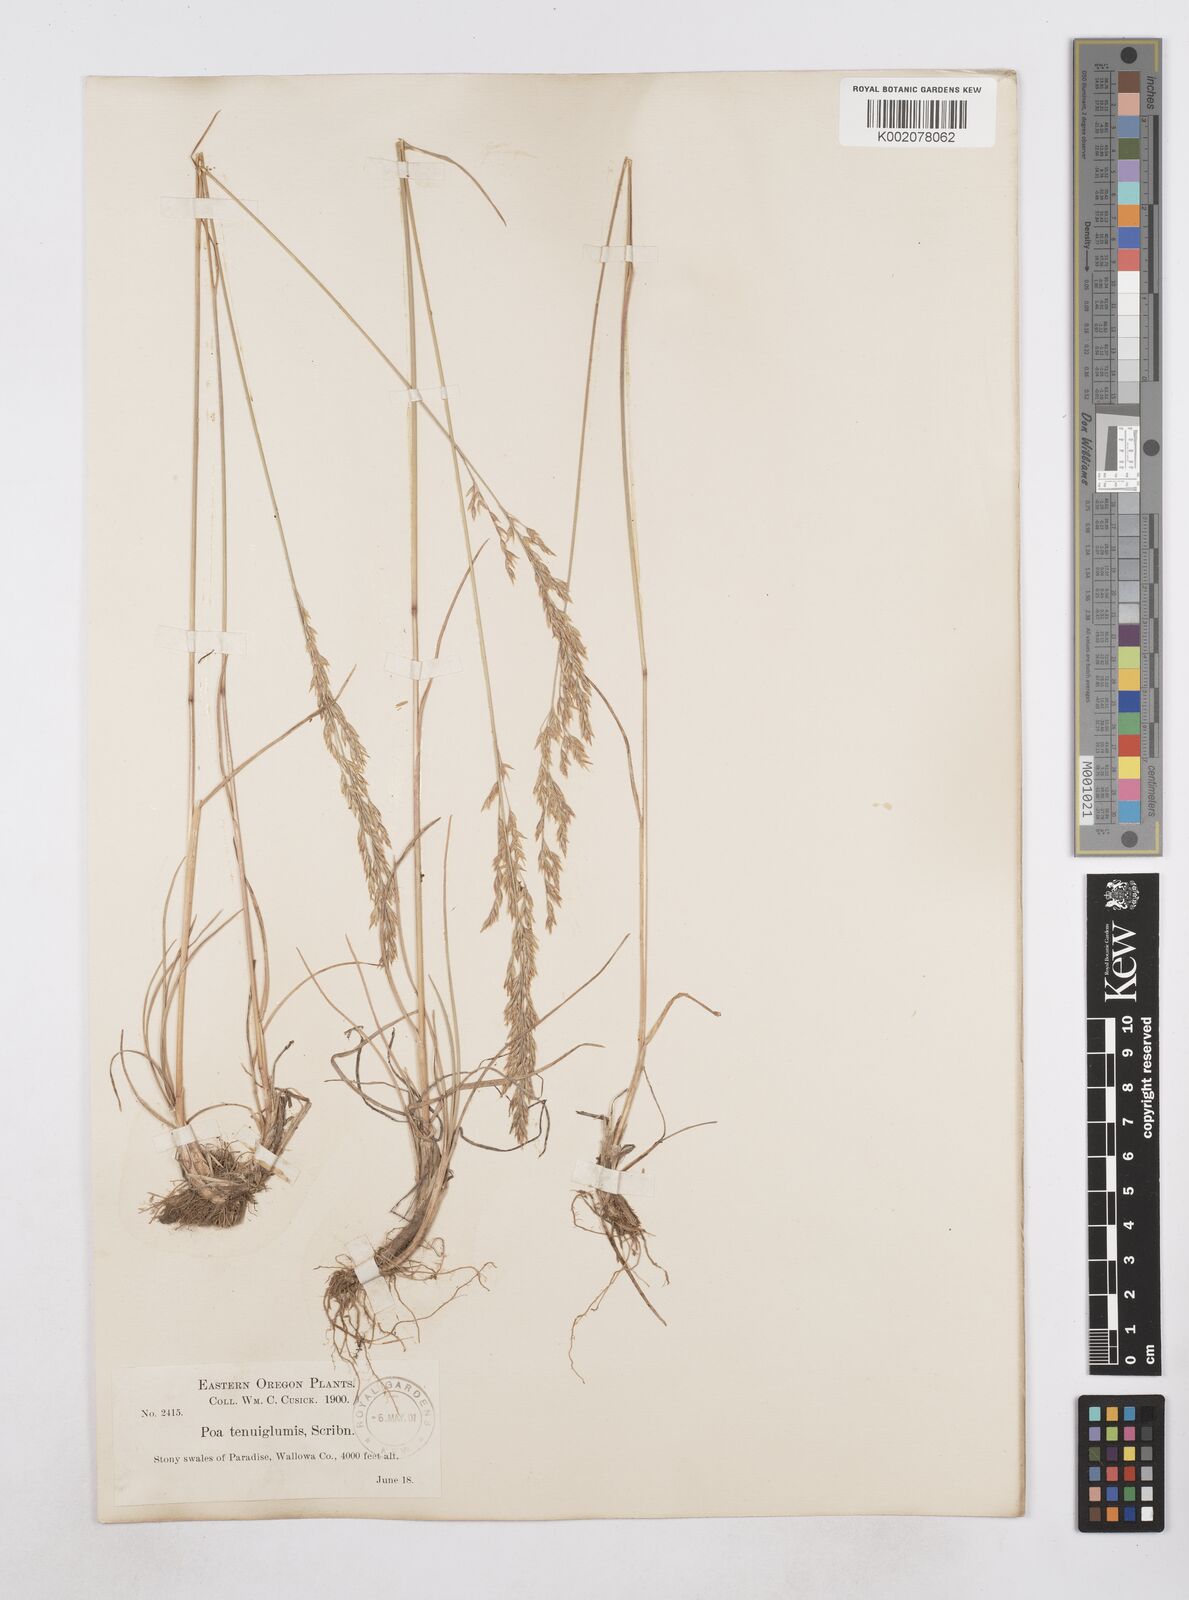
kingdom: Plantae
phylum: Tracheophyta
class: Liliopsida
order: Poales
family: Poaceae
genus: Poa
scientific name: Poa
